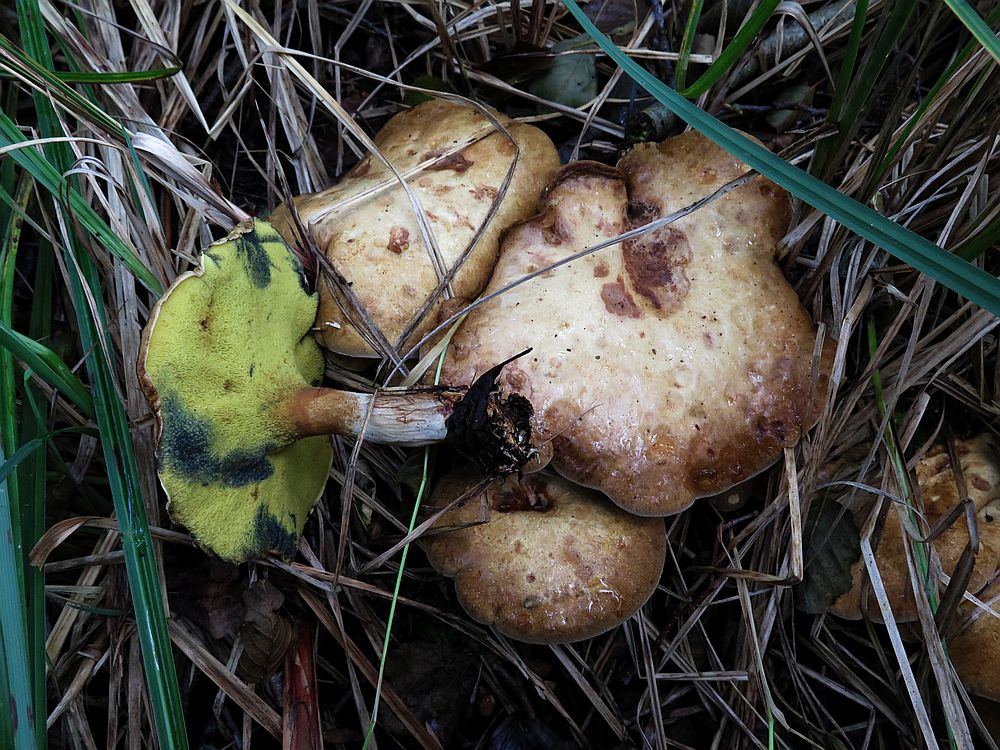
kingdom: Fungi
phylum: Basidiomycota
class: Agaricomycetes
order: Boletales
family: Paxillaceae
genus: Gyrodon
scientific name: Gyrodon lividus
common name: ellerørhat
